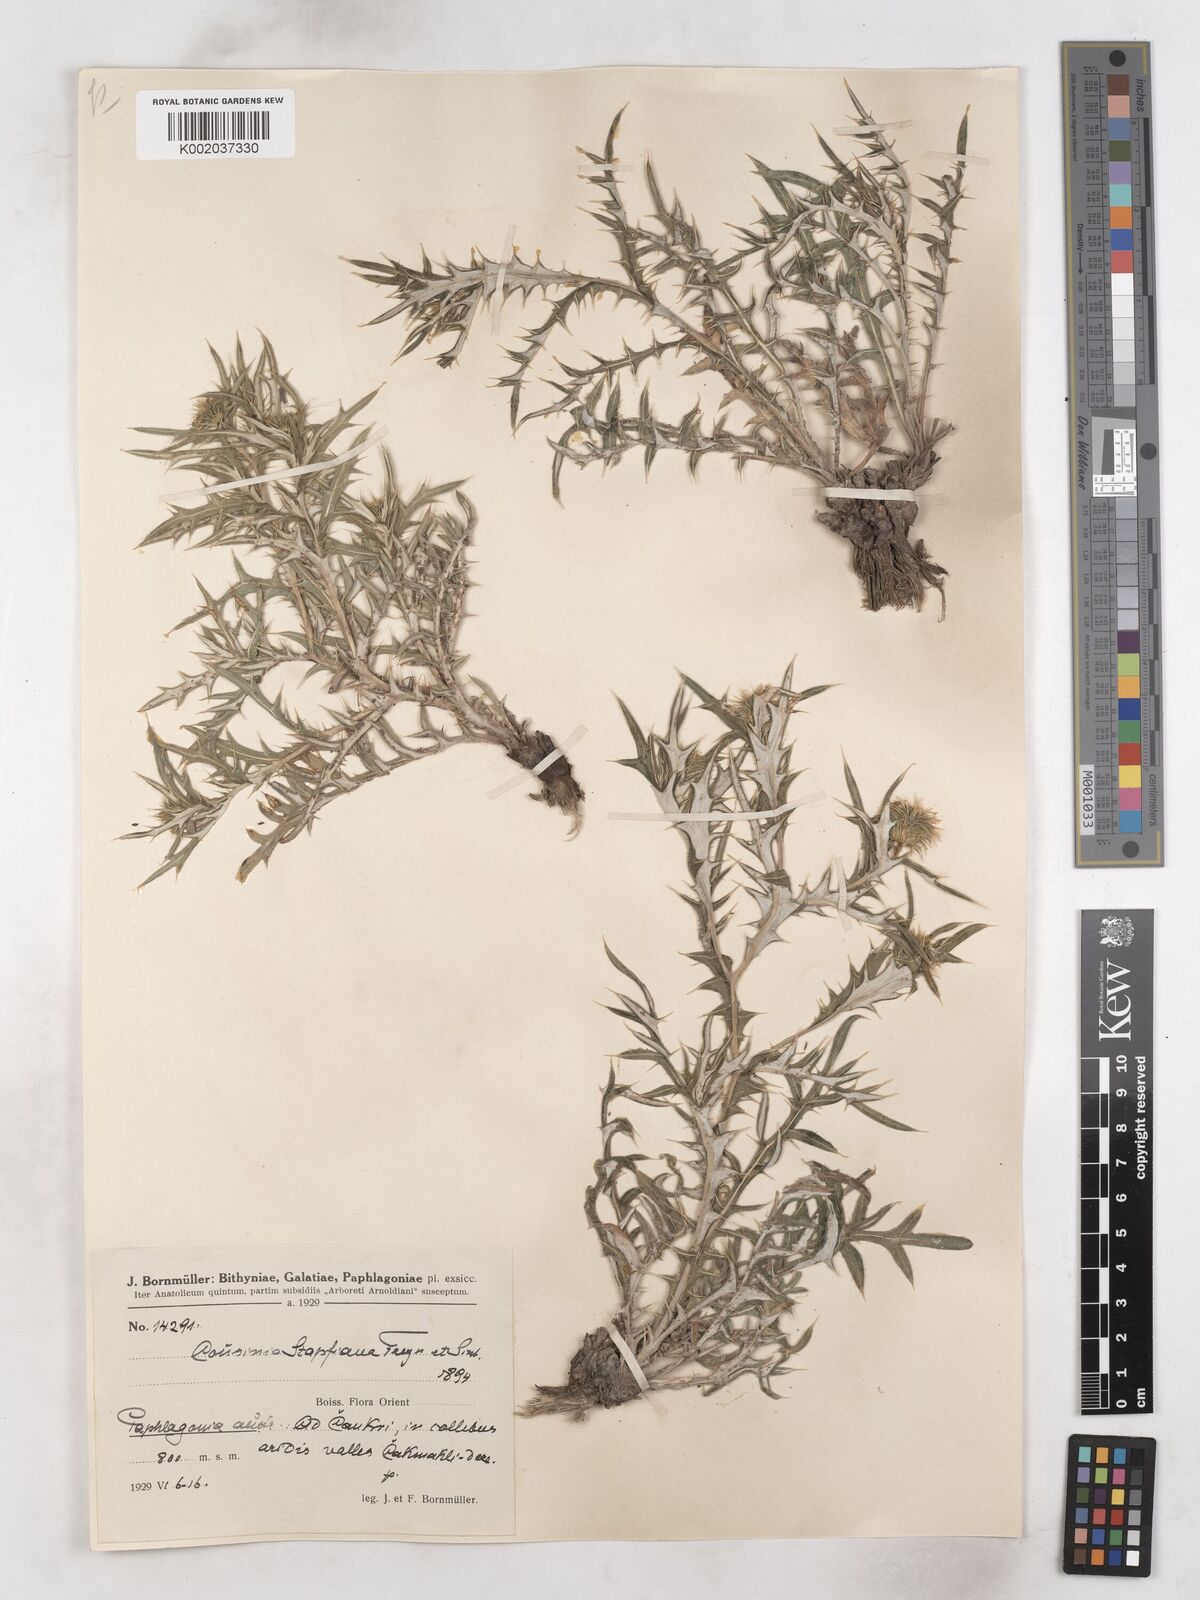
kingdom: Plantae
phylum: Tracheophyta
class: Magnoliopsida
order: Asterales
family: Asteraceae
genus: Cousinia
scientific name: Cousinia stapfiana
